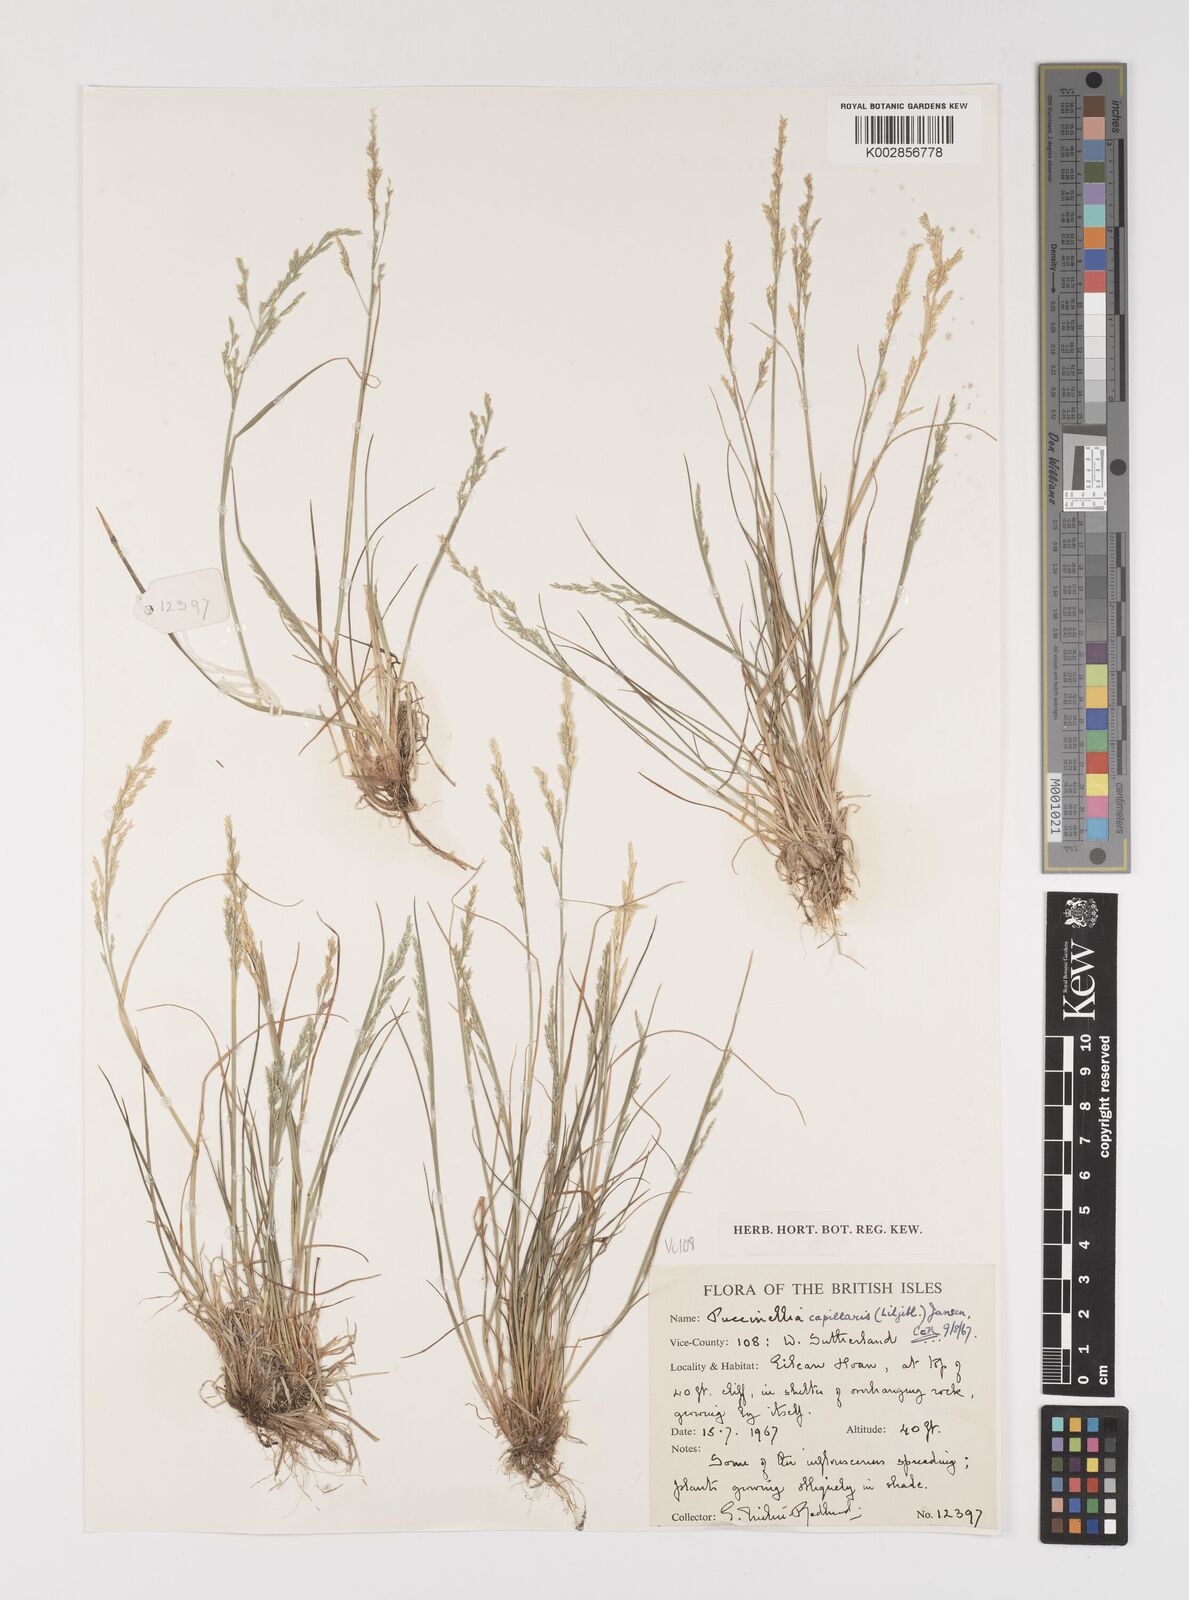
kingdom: Plantae
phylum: Tracheophyta
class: Liliopsida
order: Poales
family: Poaceae
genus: Puccinellia
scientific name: Puccinellia distans
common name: Weeping alkaligrass
